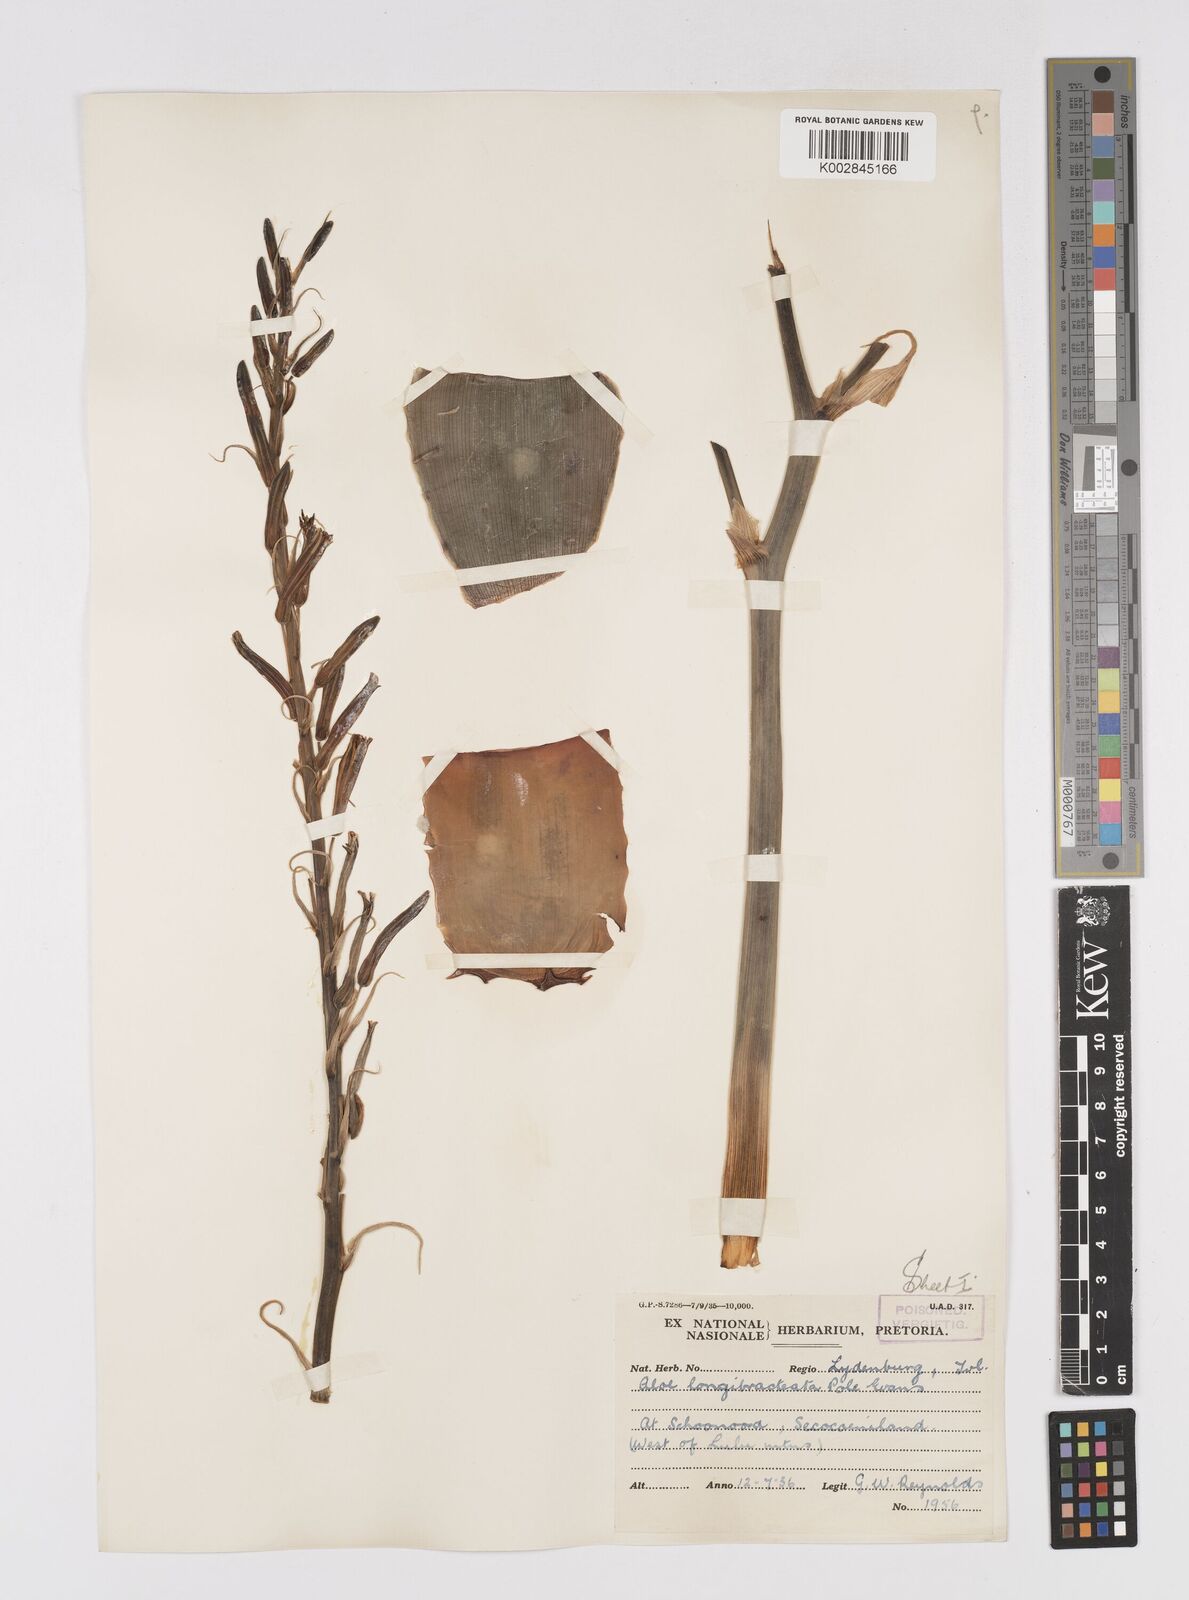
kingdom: Plantae
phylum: Tracheophyta
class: Liliopsida
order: Asparagales
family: Asphodelaceae
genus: Aloe
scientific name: Aloe longibracteata
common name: Limpopo spotted aloe
